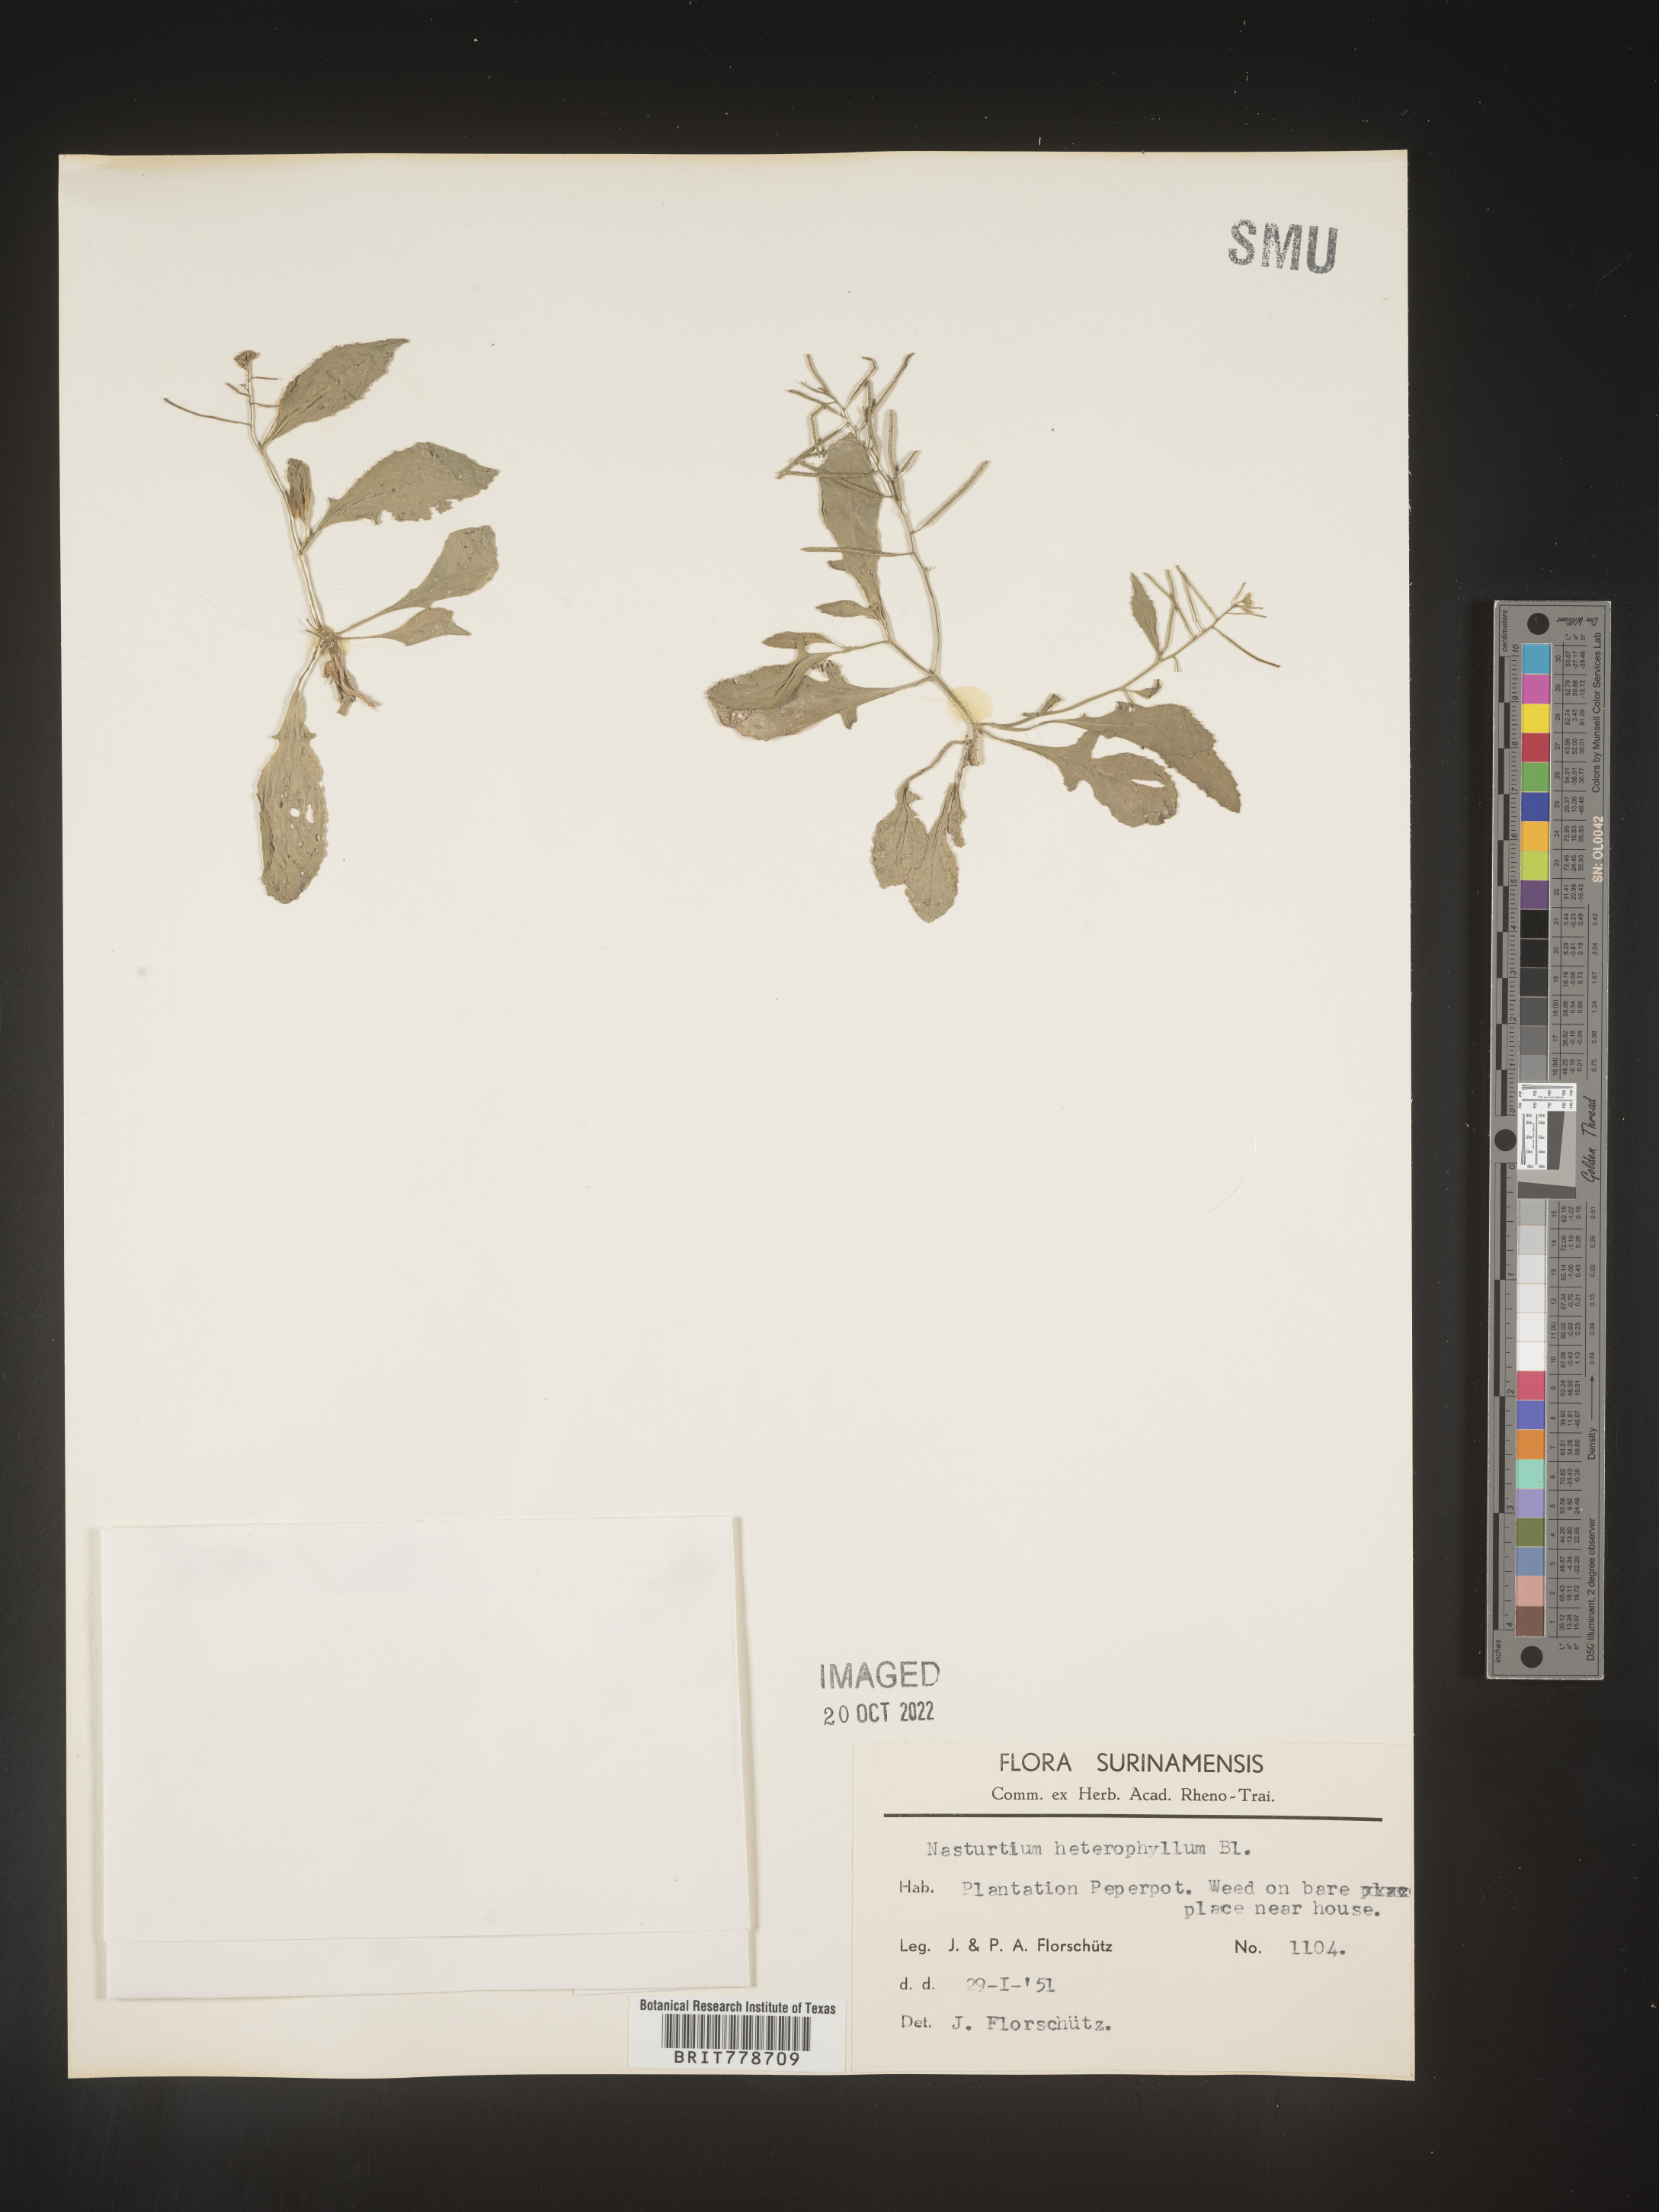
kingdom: Plantae
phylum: Tracheophyta
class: Magnoliopsida
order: Brassicales
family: Brassicaceae
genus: Rorippa
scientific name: Rorippa
